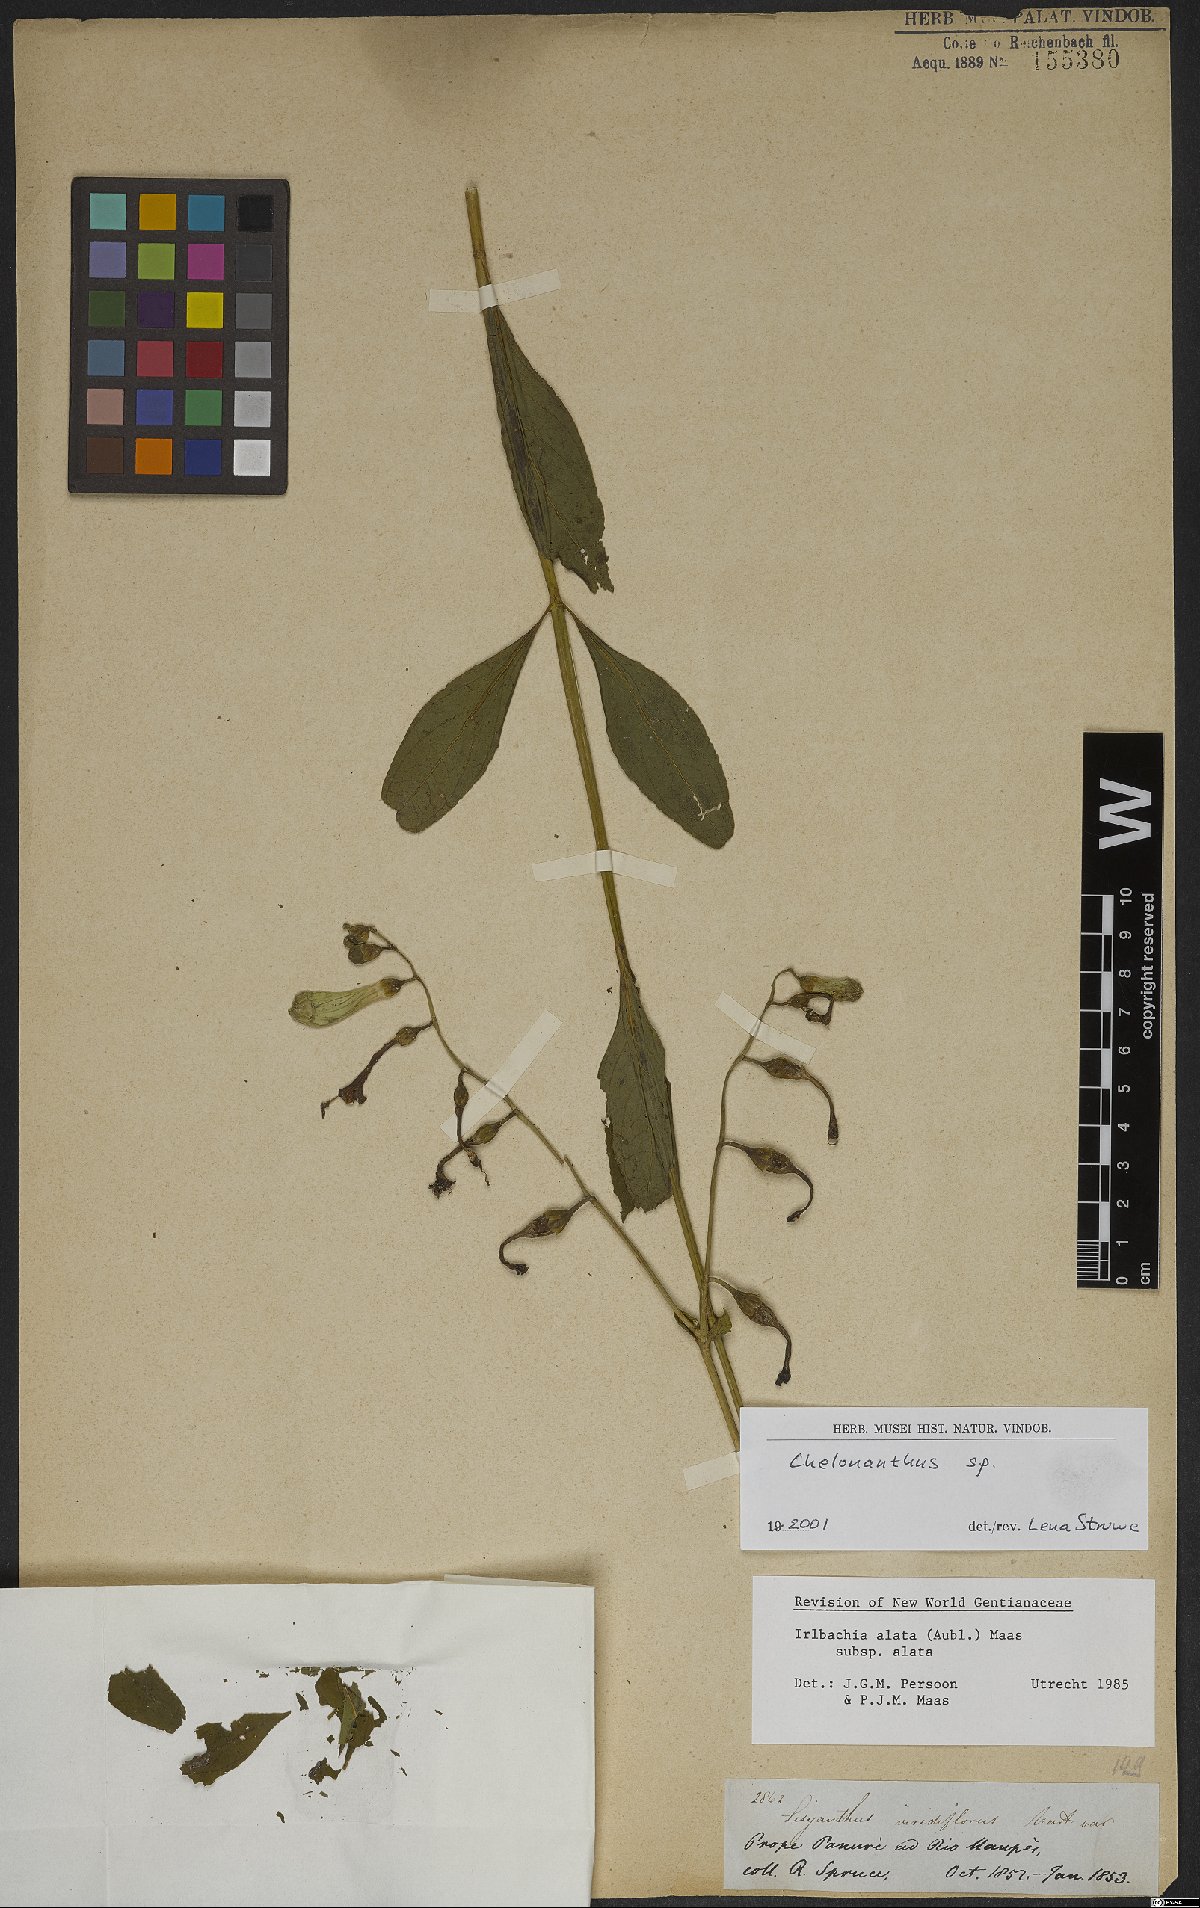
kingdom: Plantae
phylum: Tracheophyta
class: Magnoliopsida
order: Gentianales
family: Gentianaceae
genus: Chelonanthus
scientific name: Chelonanthus alatus
